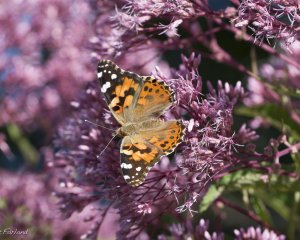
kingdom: Animalia
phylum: Arthropoda
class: Insecta
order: Lepidoptera
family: Nymphalidae
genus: Vanessa
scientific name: Vanessa cardui
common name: Painted Lady
